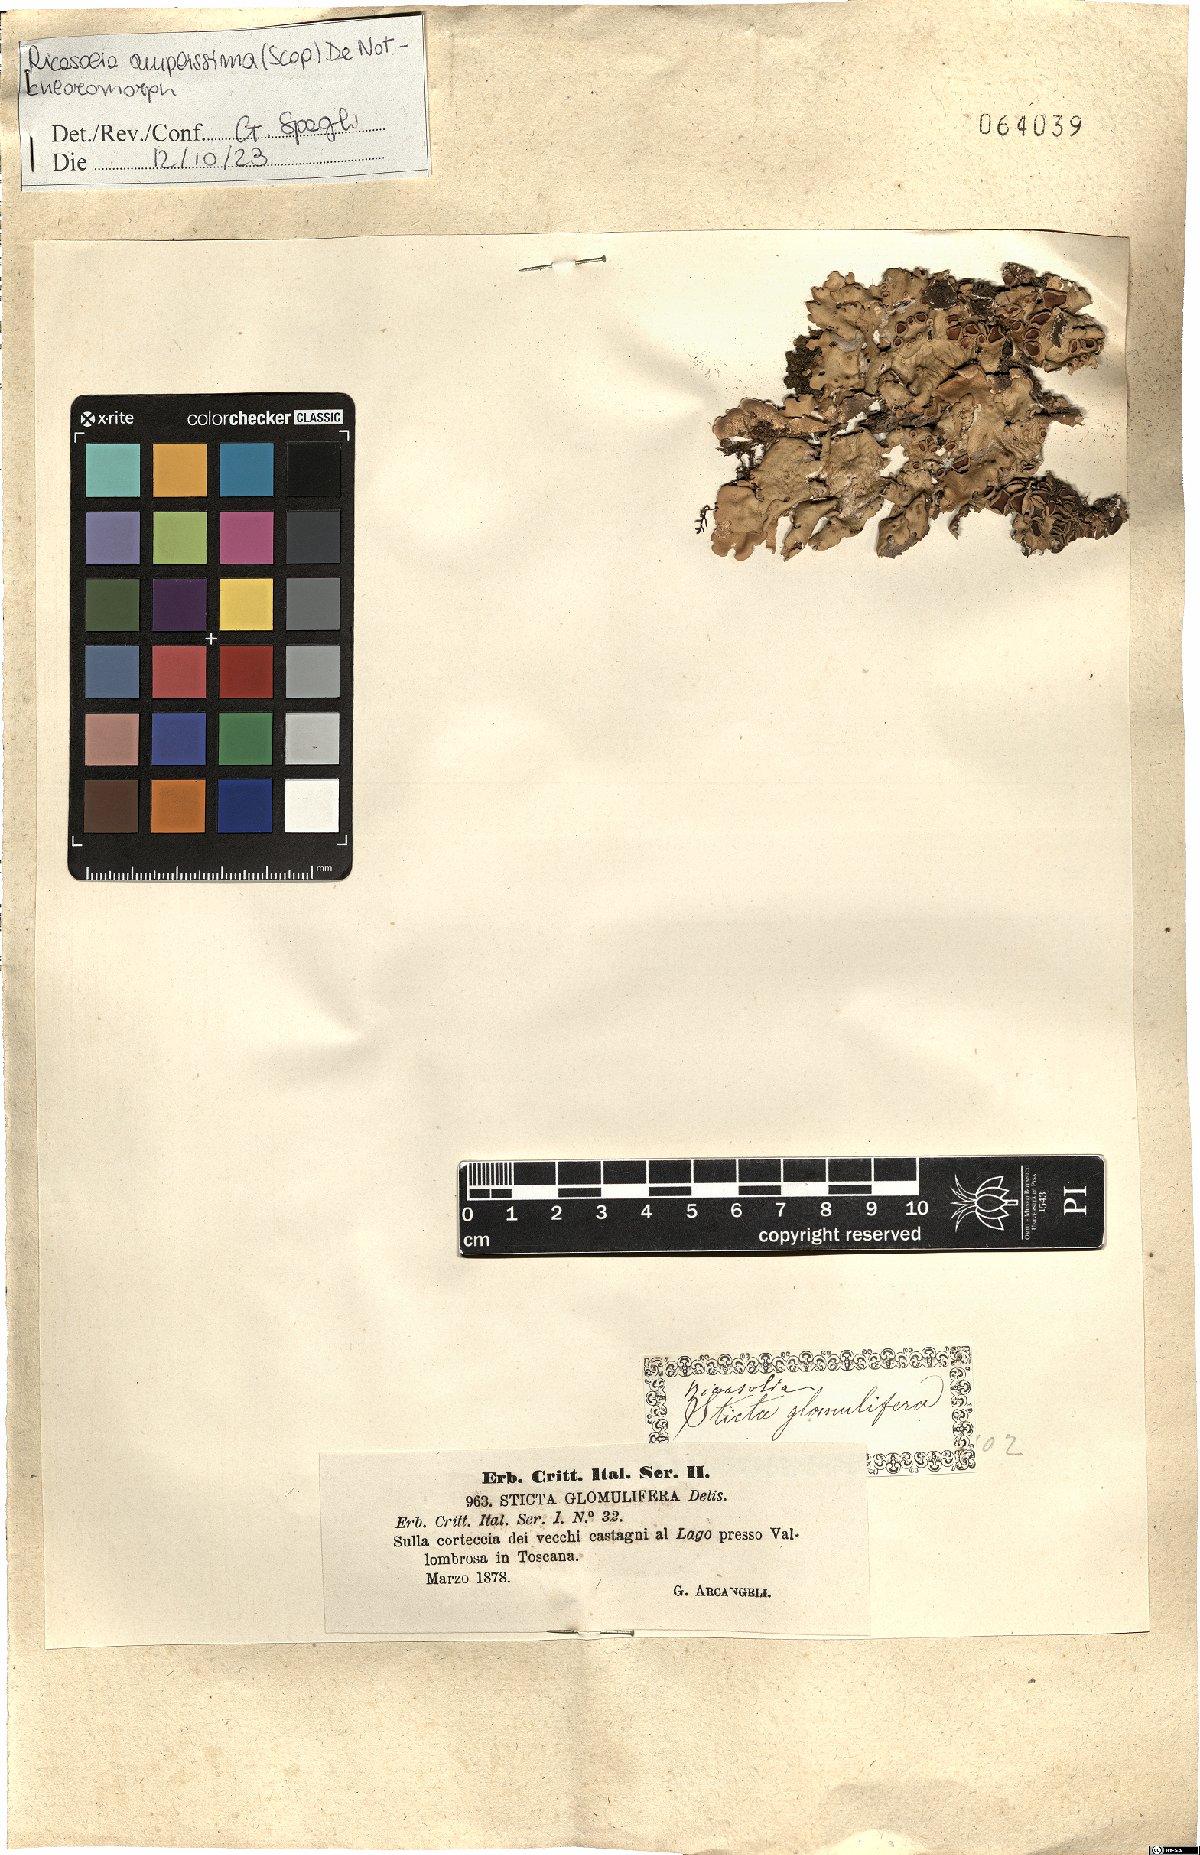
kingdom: Fungi
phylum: Ascomycota
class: Lecanoromycetes
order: Peltigerales
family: Lobariaceae
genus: Ricasolia
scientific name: Ricasolia amplissima
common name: Giant candlewax lichen
